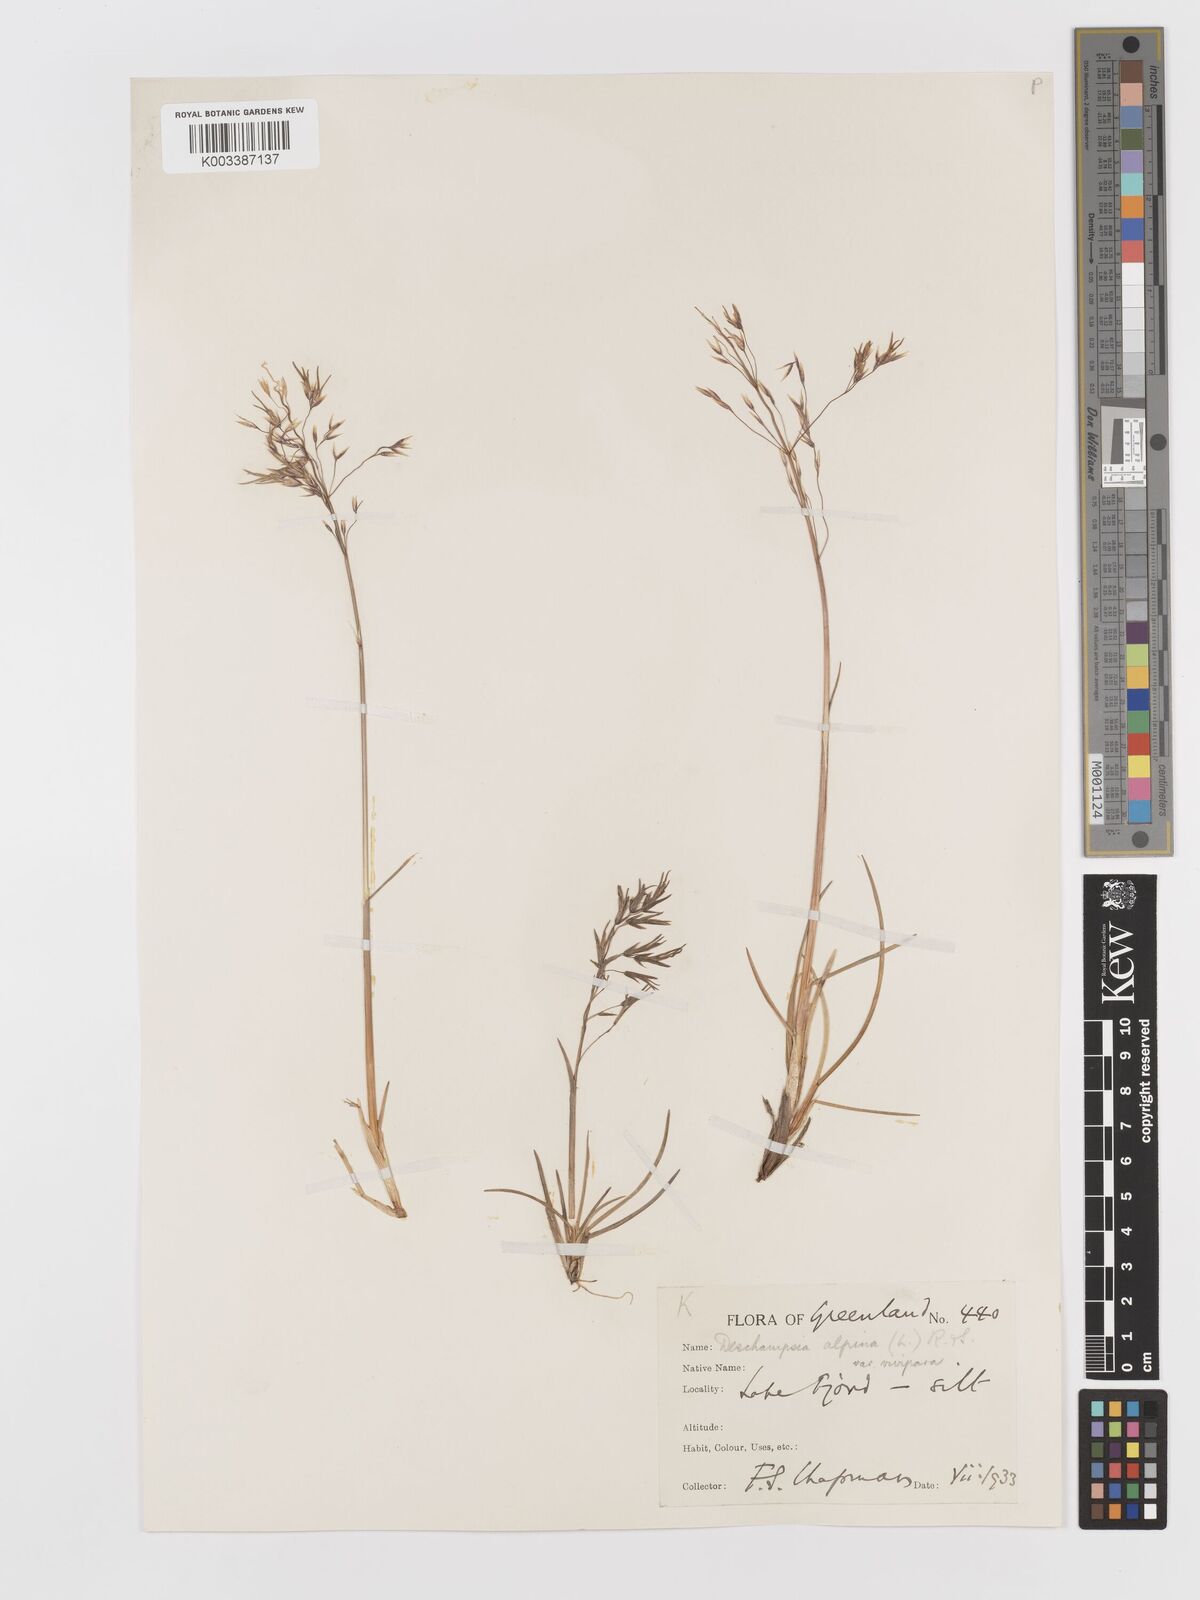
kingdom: Plantae
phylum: Tracheophyta
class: Liliopsida
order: Poales
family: Poaceae
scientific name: Poaceae
